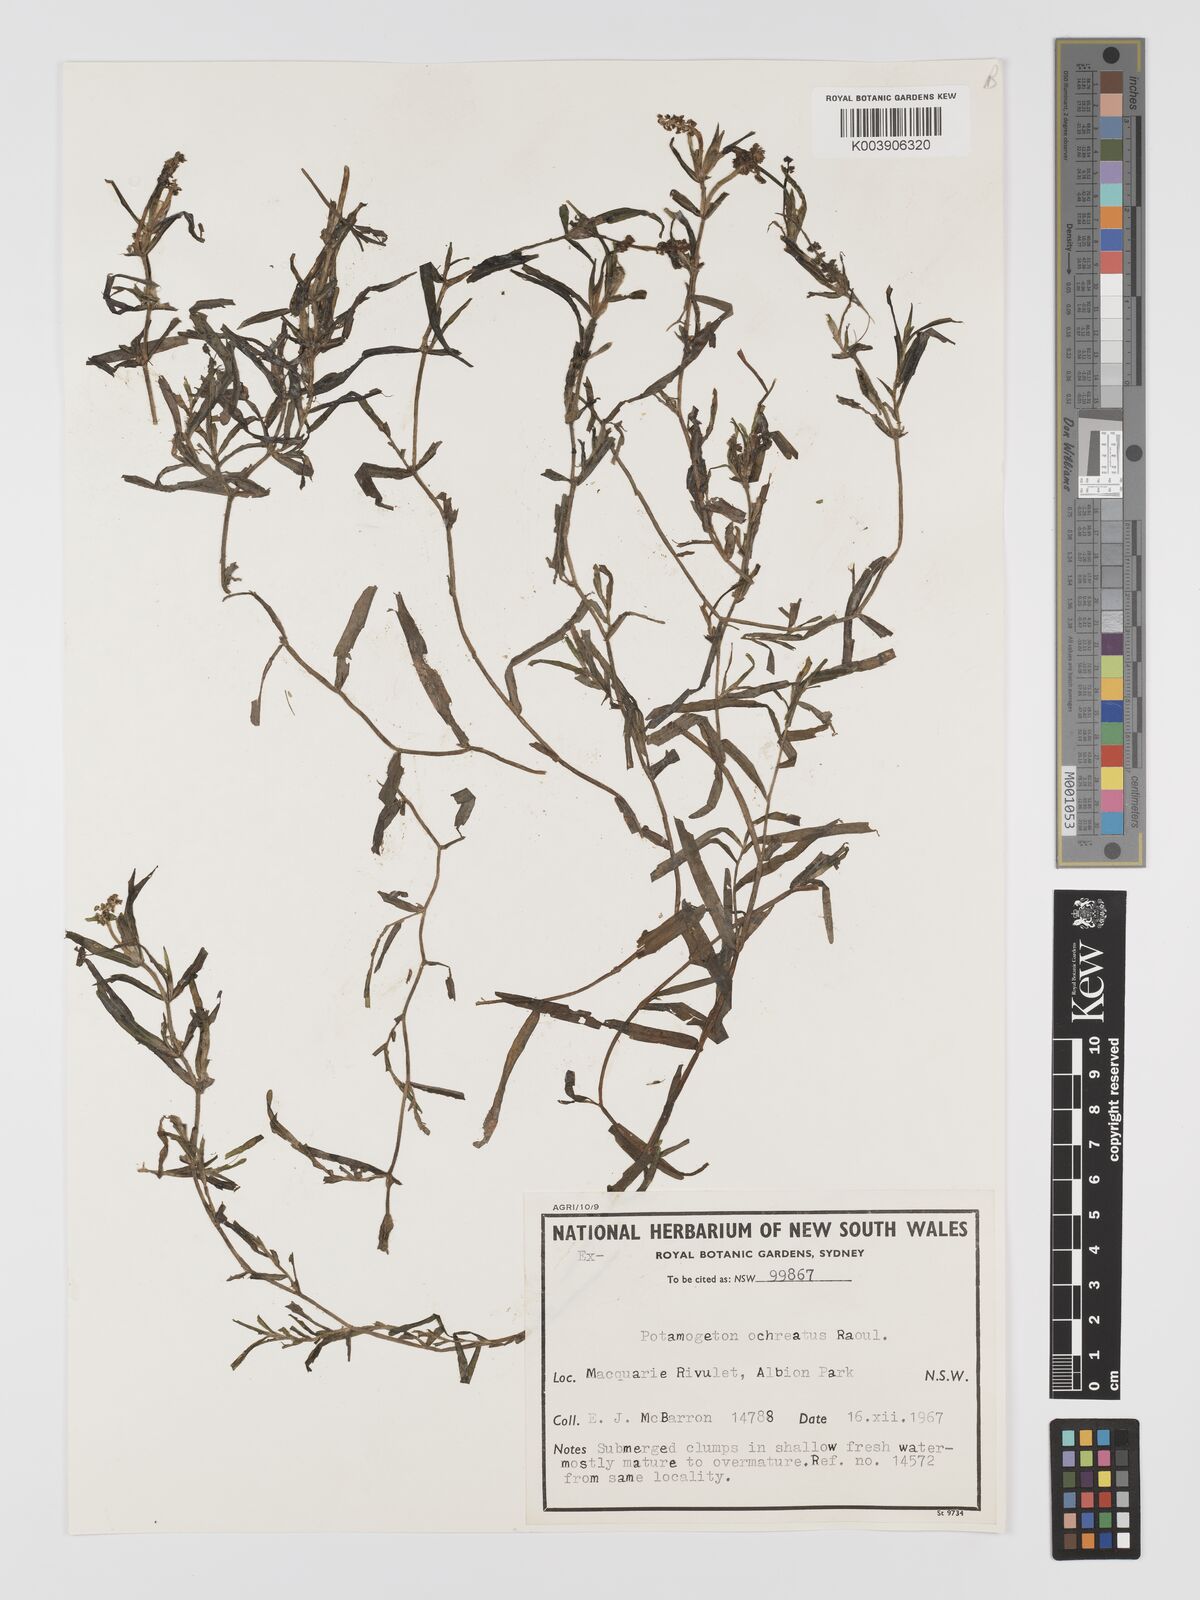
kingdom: Plantae
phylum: Tracheophyta
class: Liliopsida
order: Alismatales
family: Potamogetonaceae
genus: Potamogeton
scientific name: Potamogeton ochreatus
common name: Blunt pondweed
